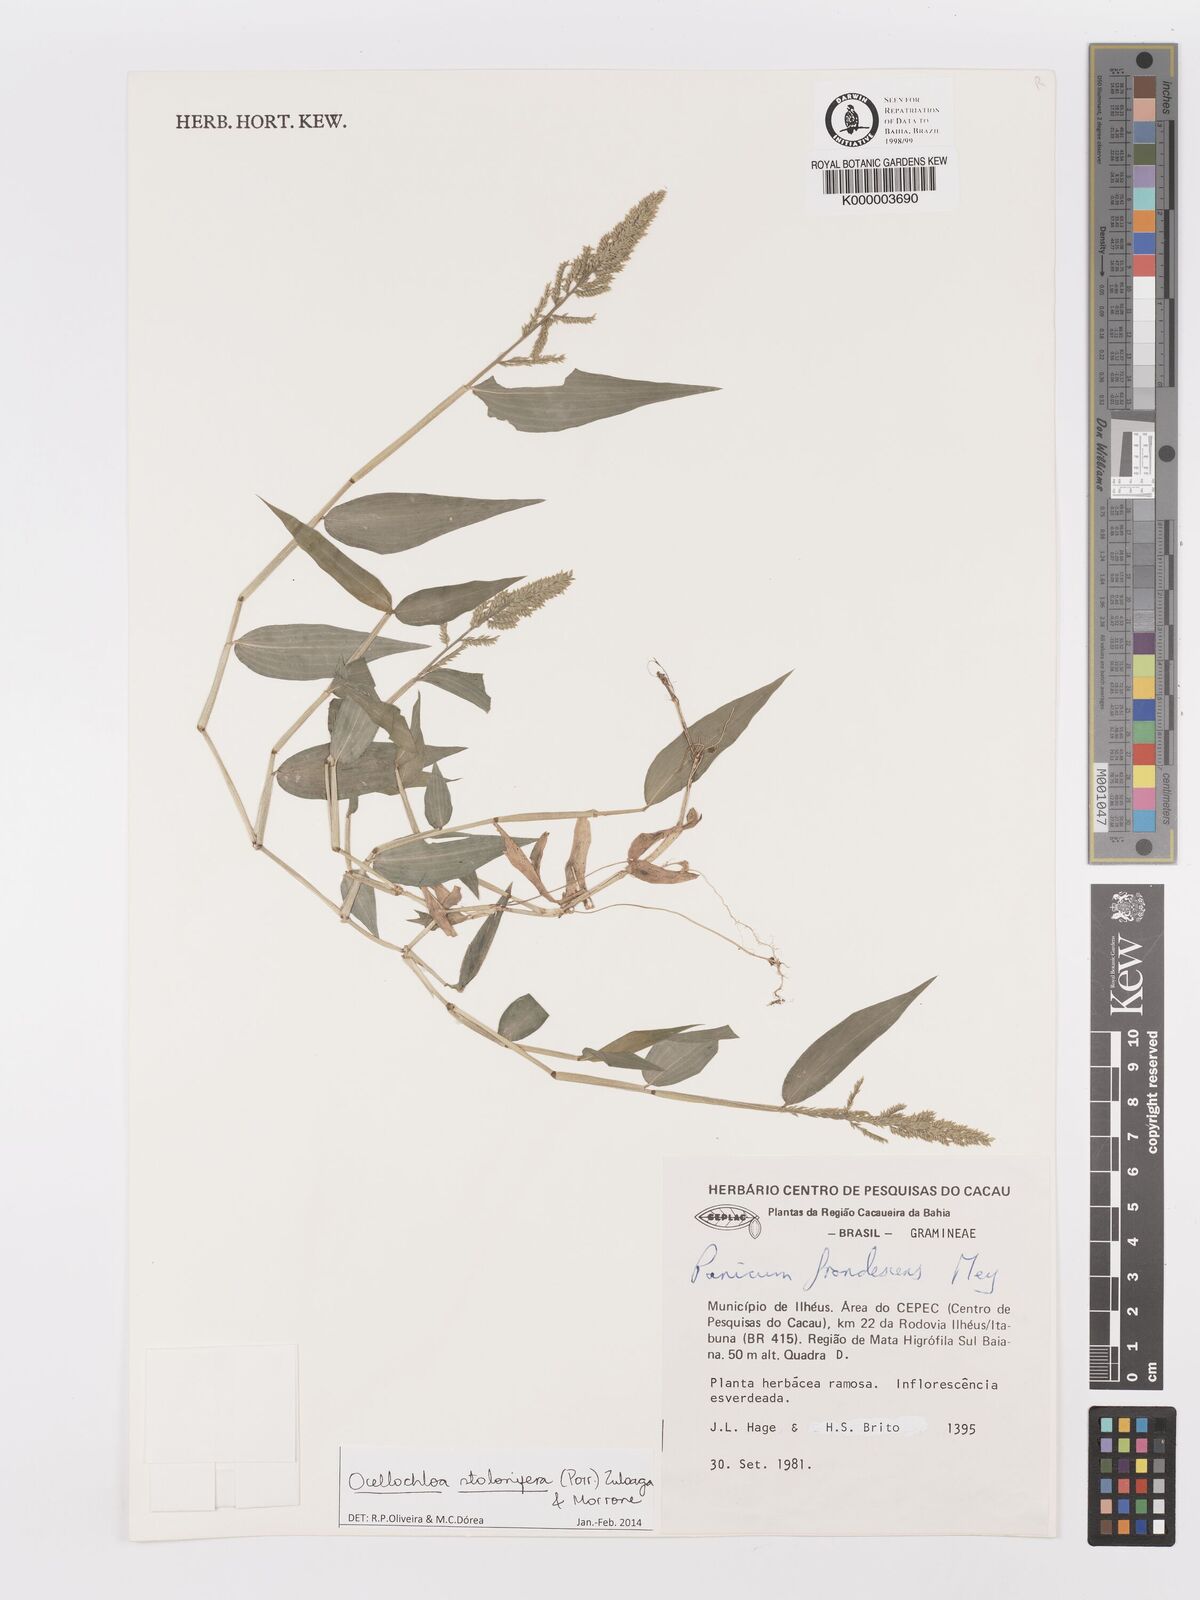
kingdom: Plantae
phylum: Tracheophyta
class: Liliopsida
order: Poales
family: Poaceae
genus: Ocellochloa
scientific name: Ocellochloa stolonifera
